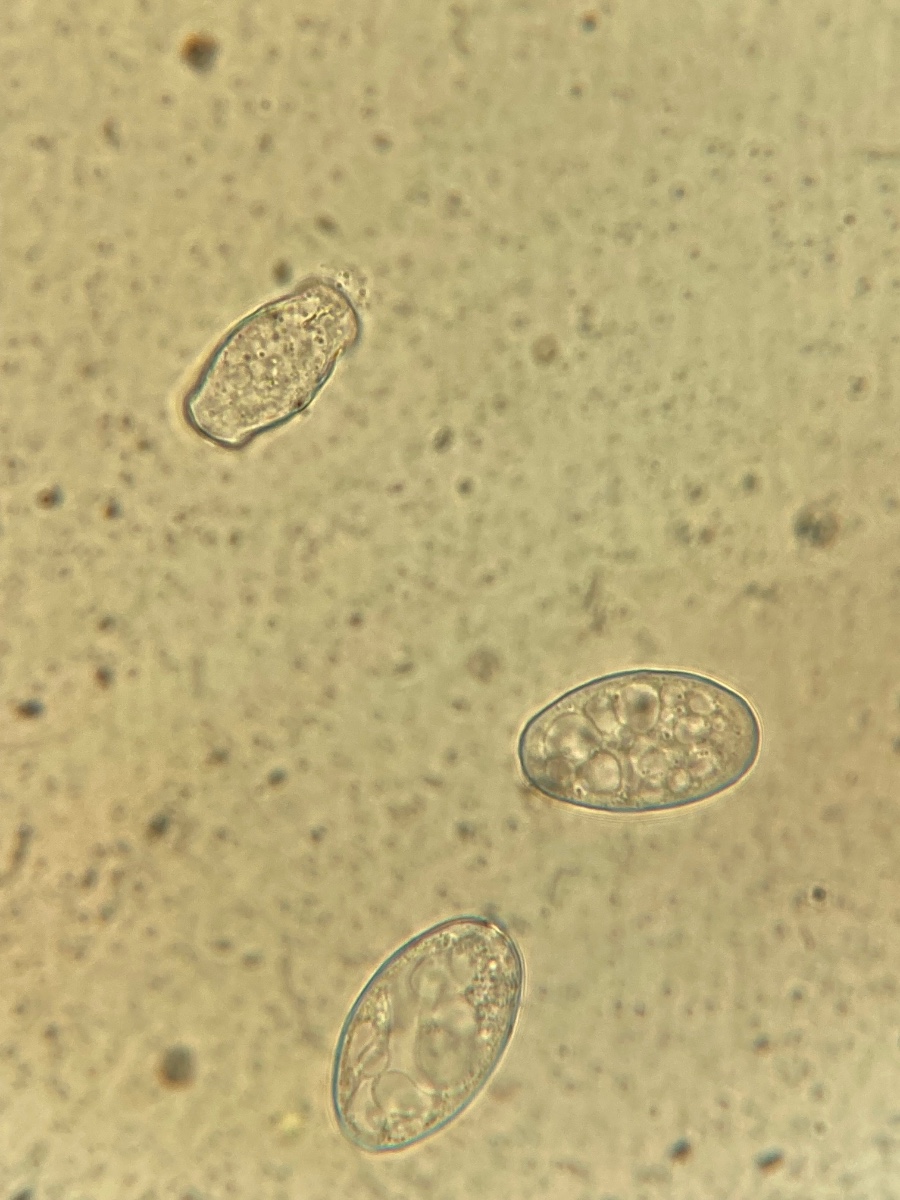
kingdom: Fungi
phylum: Ascomycota
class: Leotiomycetes
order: Helotiales
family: Erysiphaceae
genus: Golovinomyces
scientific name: Golovinomyces montagnei
